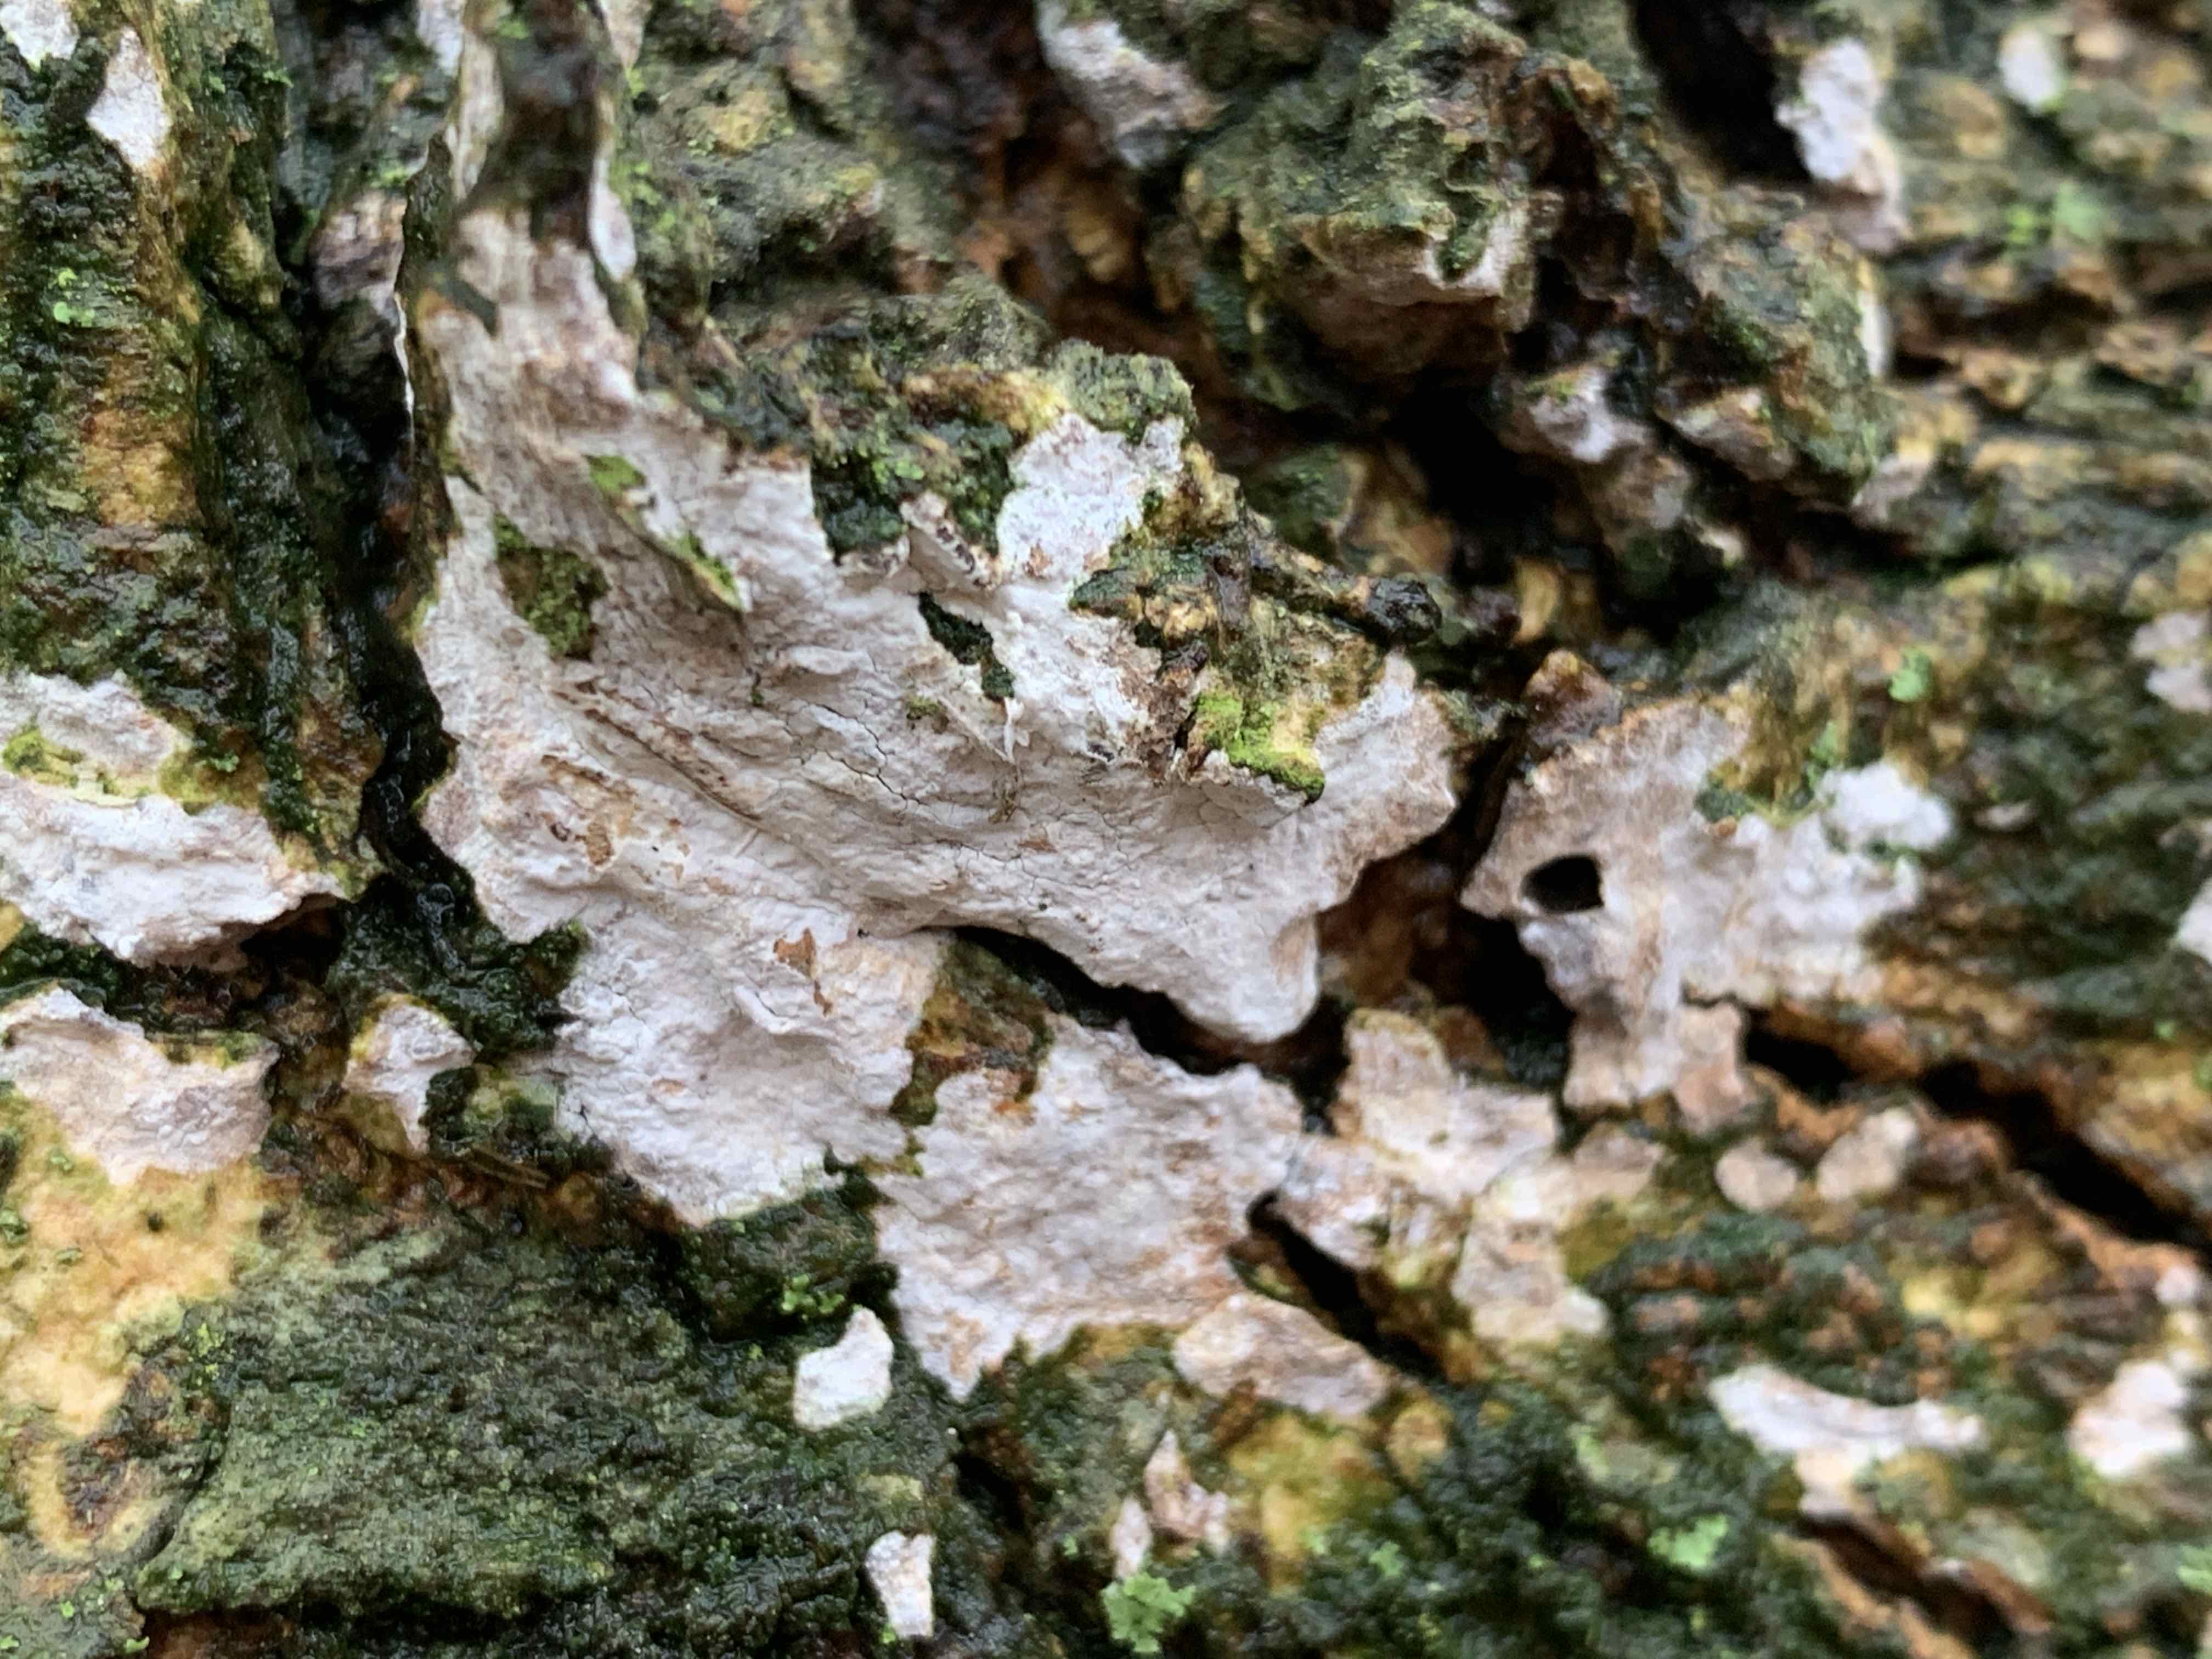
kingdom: Fungi
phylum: Basidiomycota
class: Agaricomycetes
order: Agaricales
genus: Dendrothele
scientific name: Dendrothele acerina
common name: navr-kalkplet
